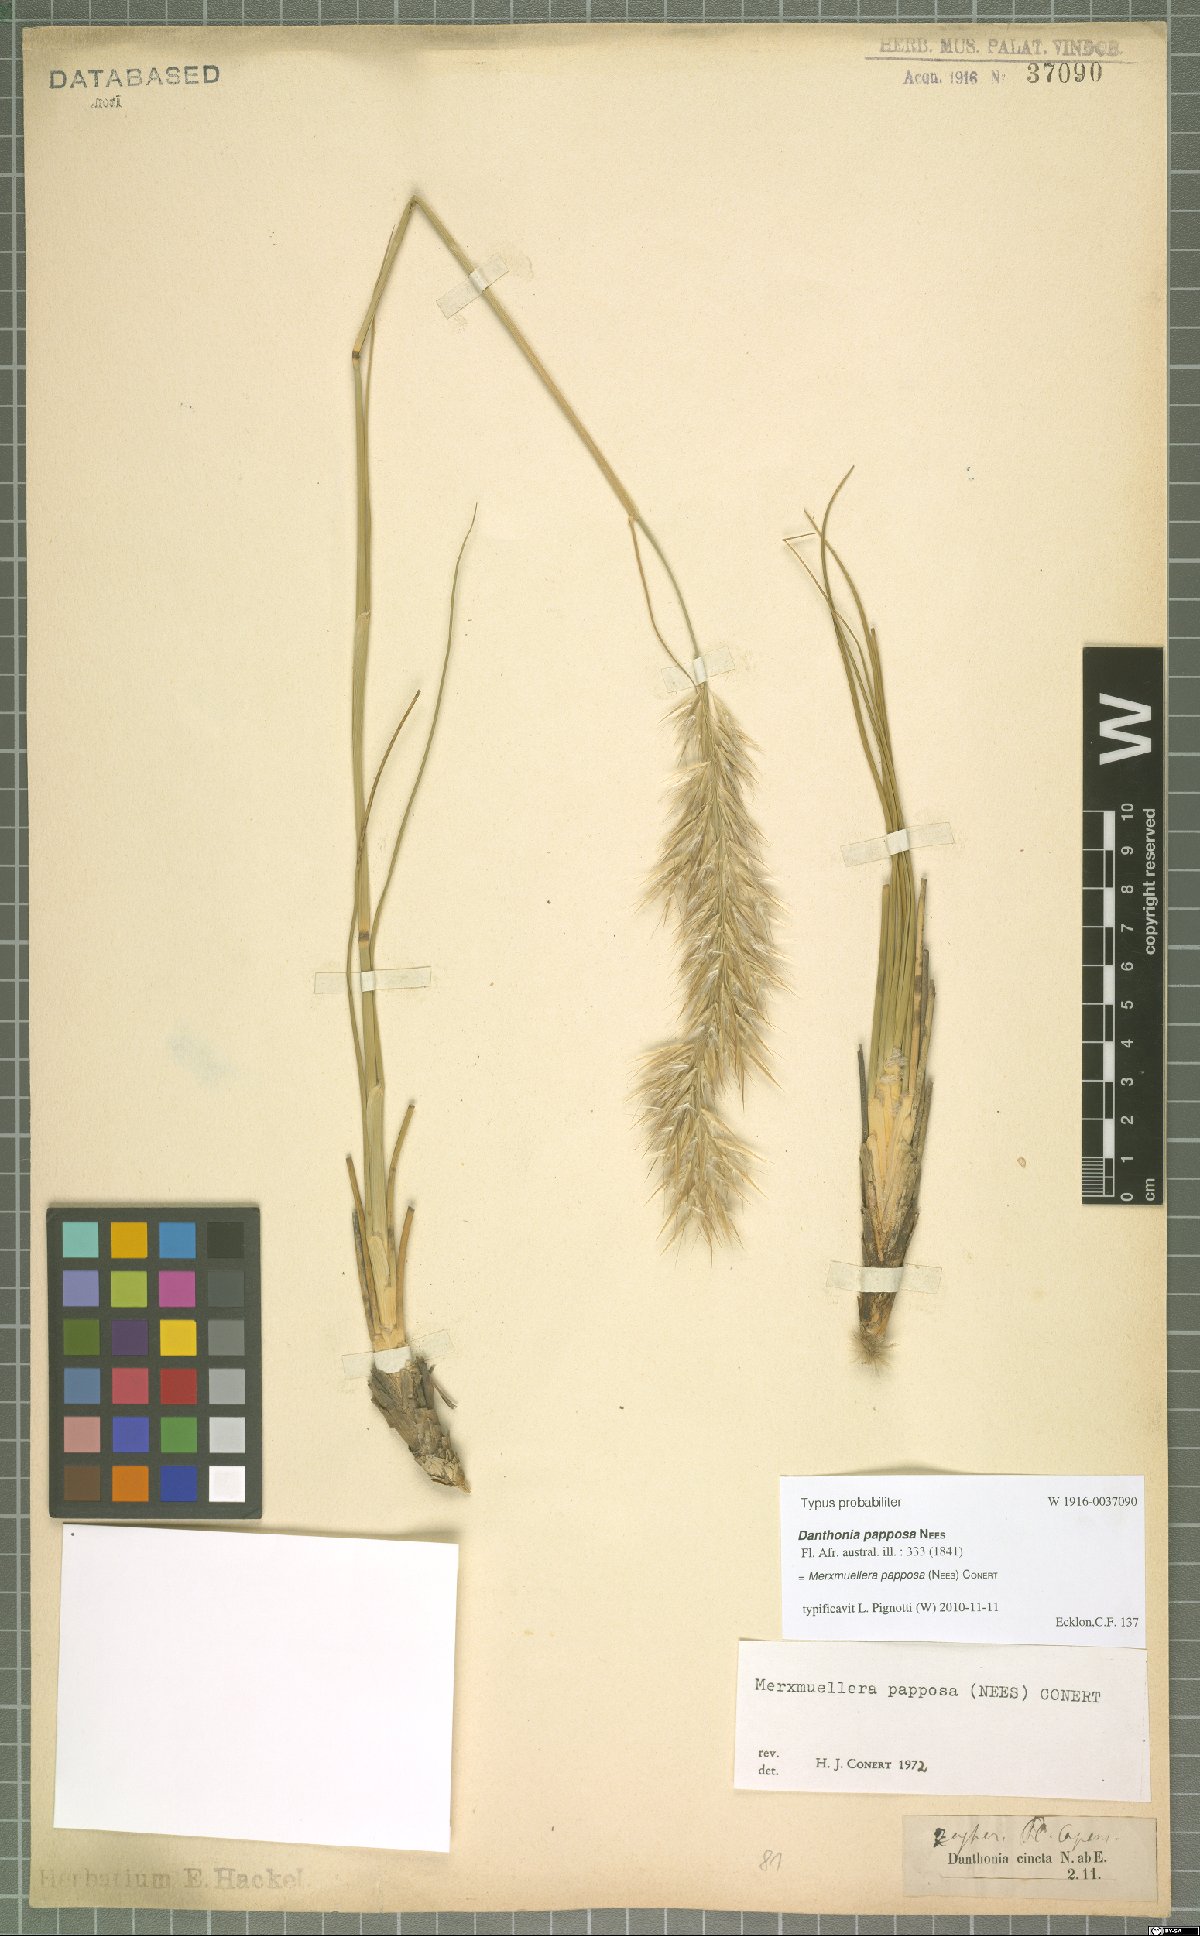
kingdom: Plantae
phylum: Tracheophyta
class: Liliopsida
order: Poales
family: Poaceae
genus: Ellisochloa
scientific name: Ellisochloa papposa
